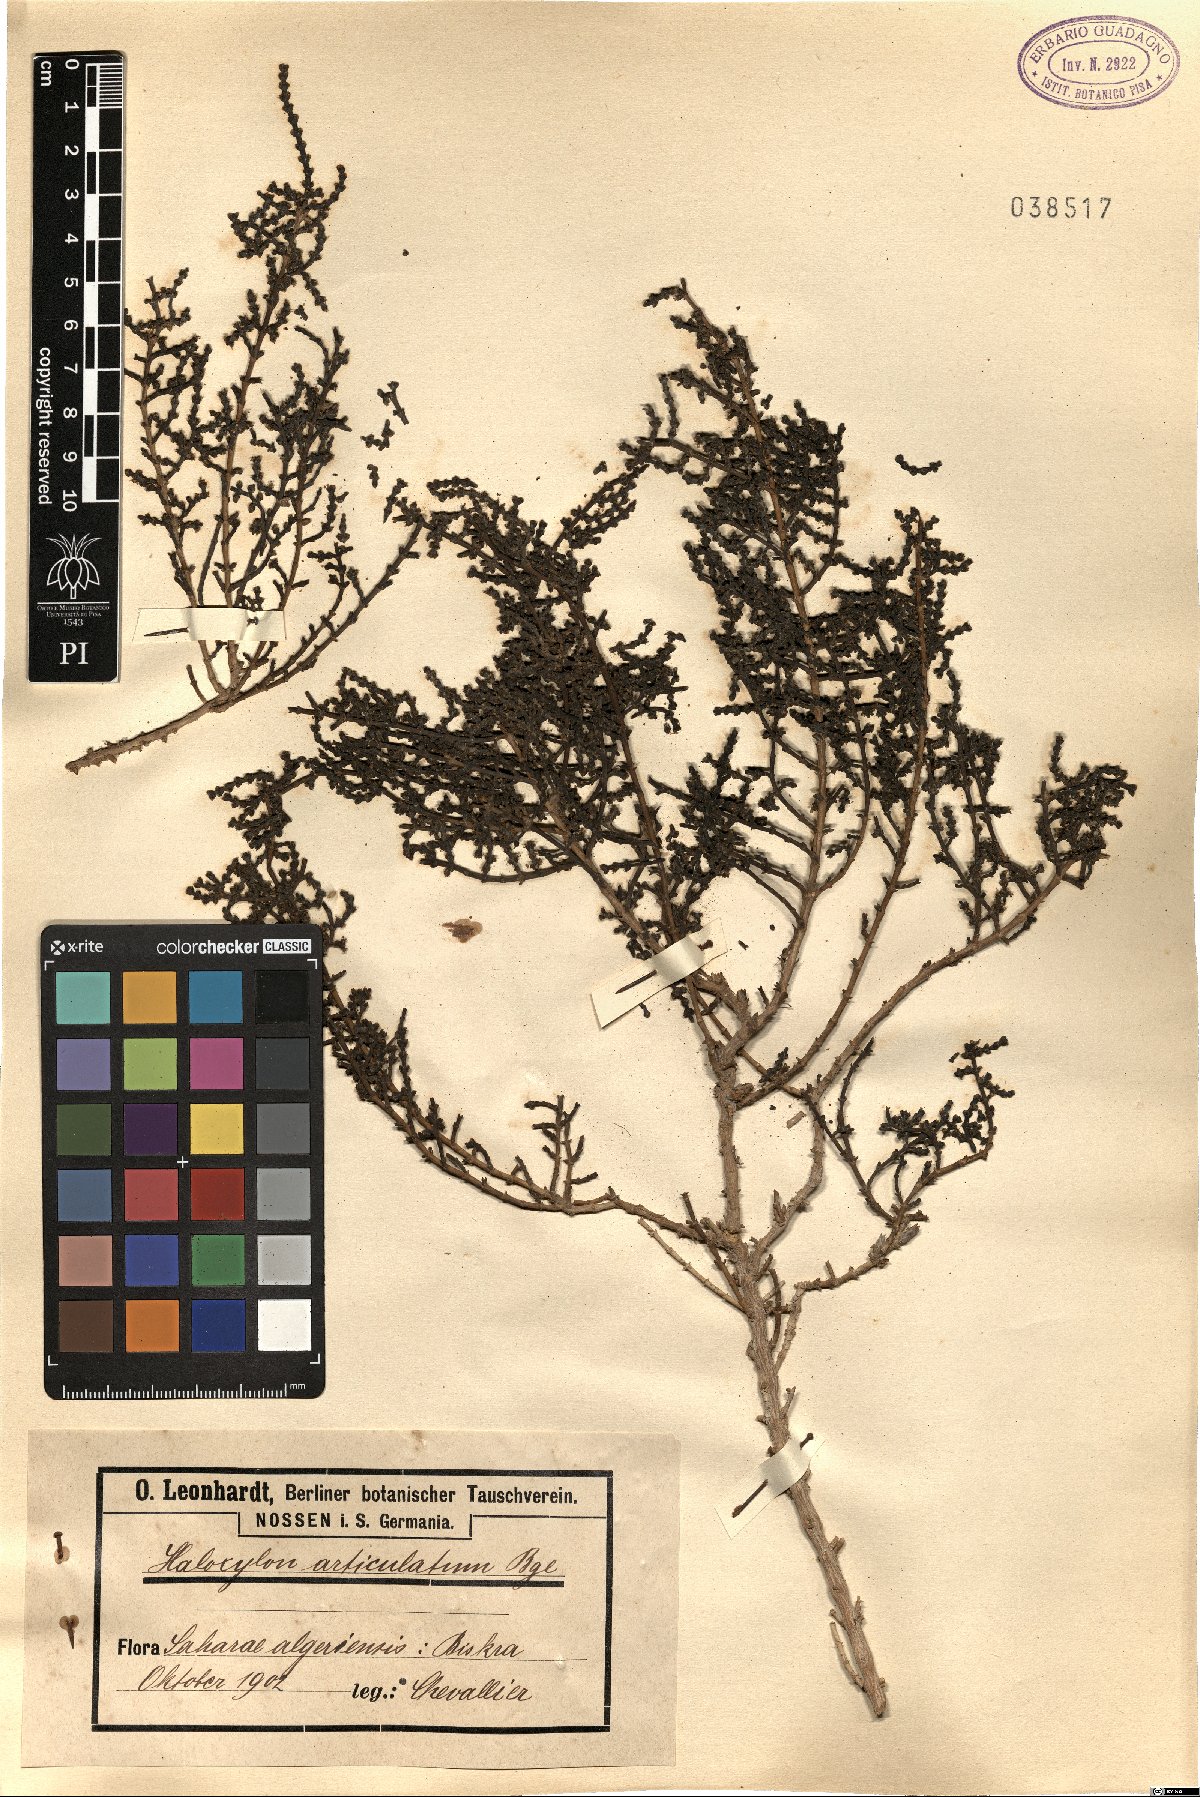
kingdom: Plantae
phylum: Tracheophyta
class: Magnoliopsida
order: Caryophyllales
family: Amaranthaceae
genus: Haloxylon
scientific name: Haloxylon
